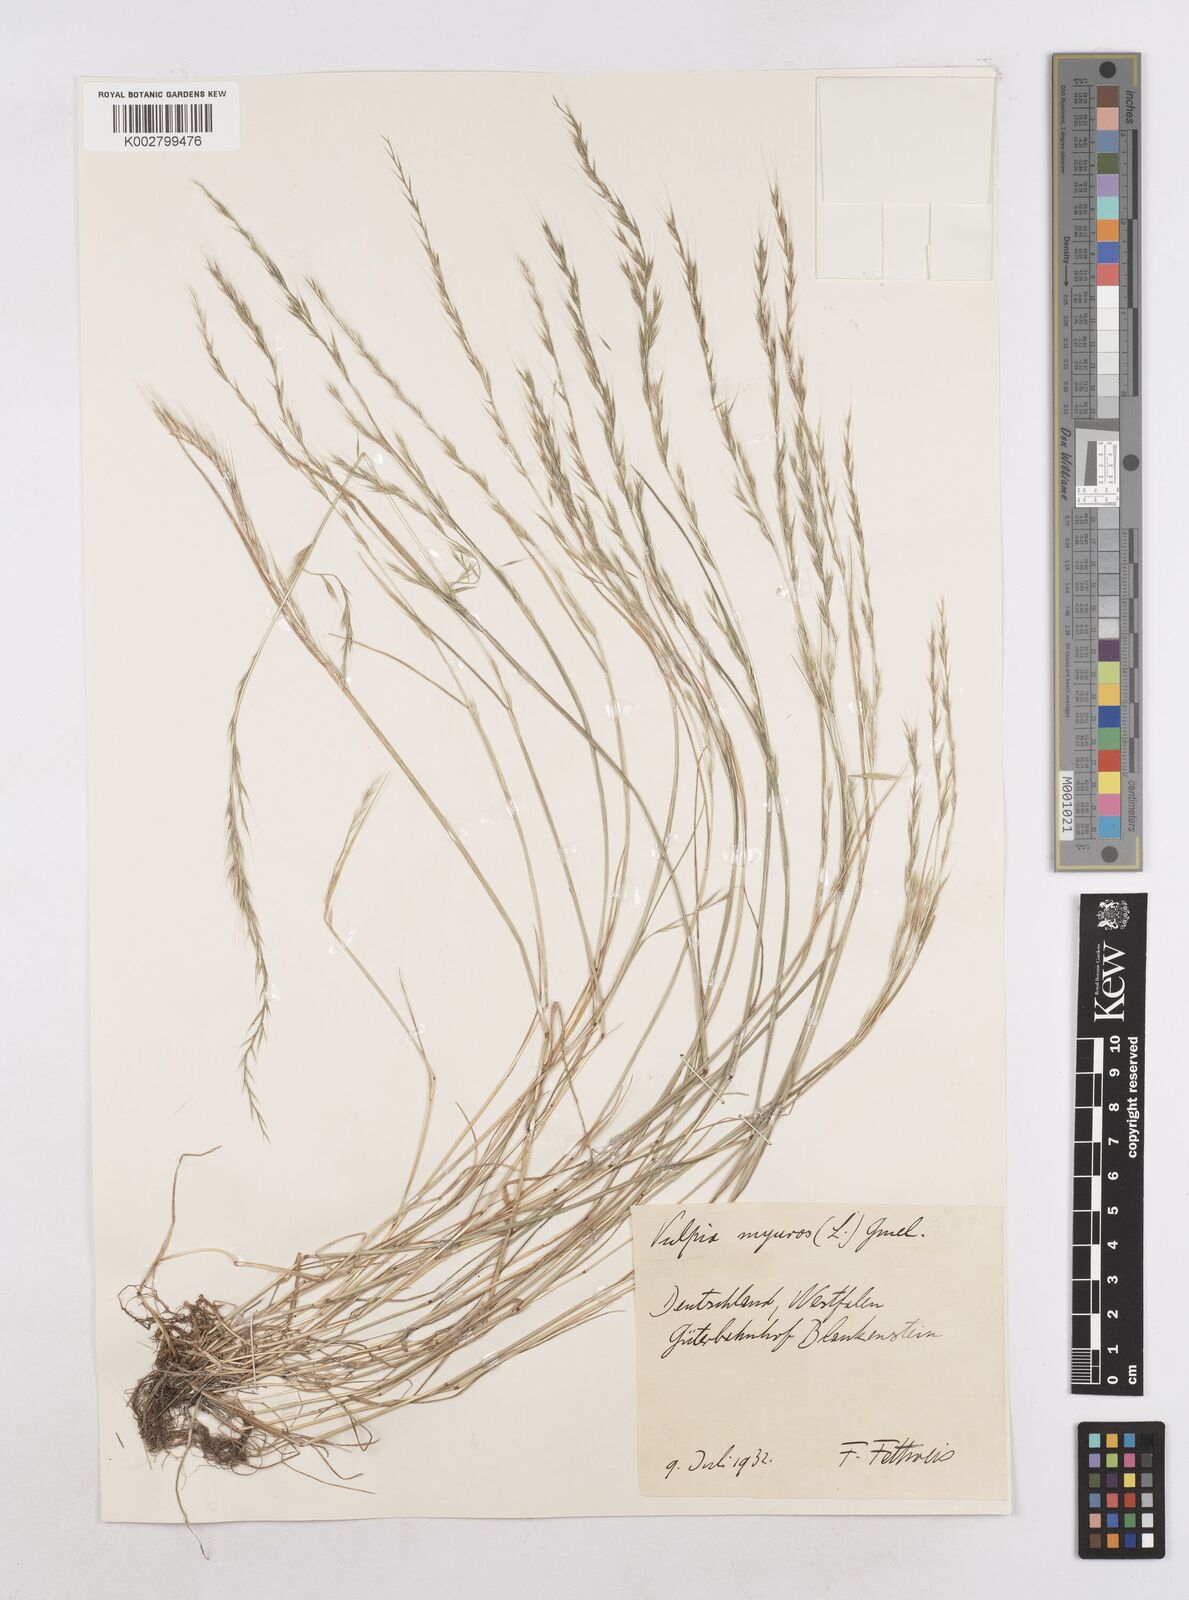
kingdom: Plantae
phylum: Tracheophyta
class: Liliopsida
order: Poales
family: Poaceae
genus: Festuca
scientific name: Festuca myuros
